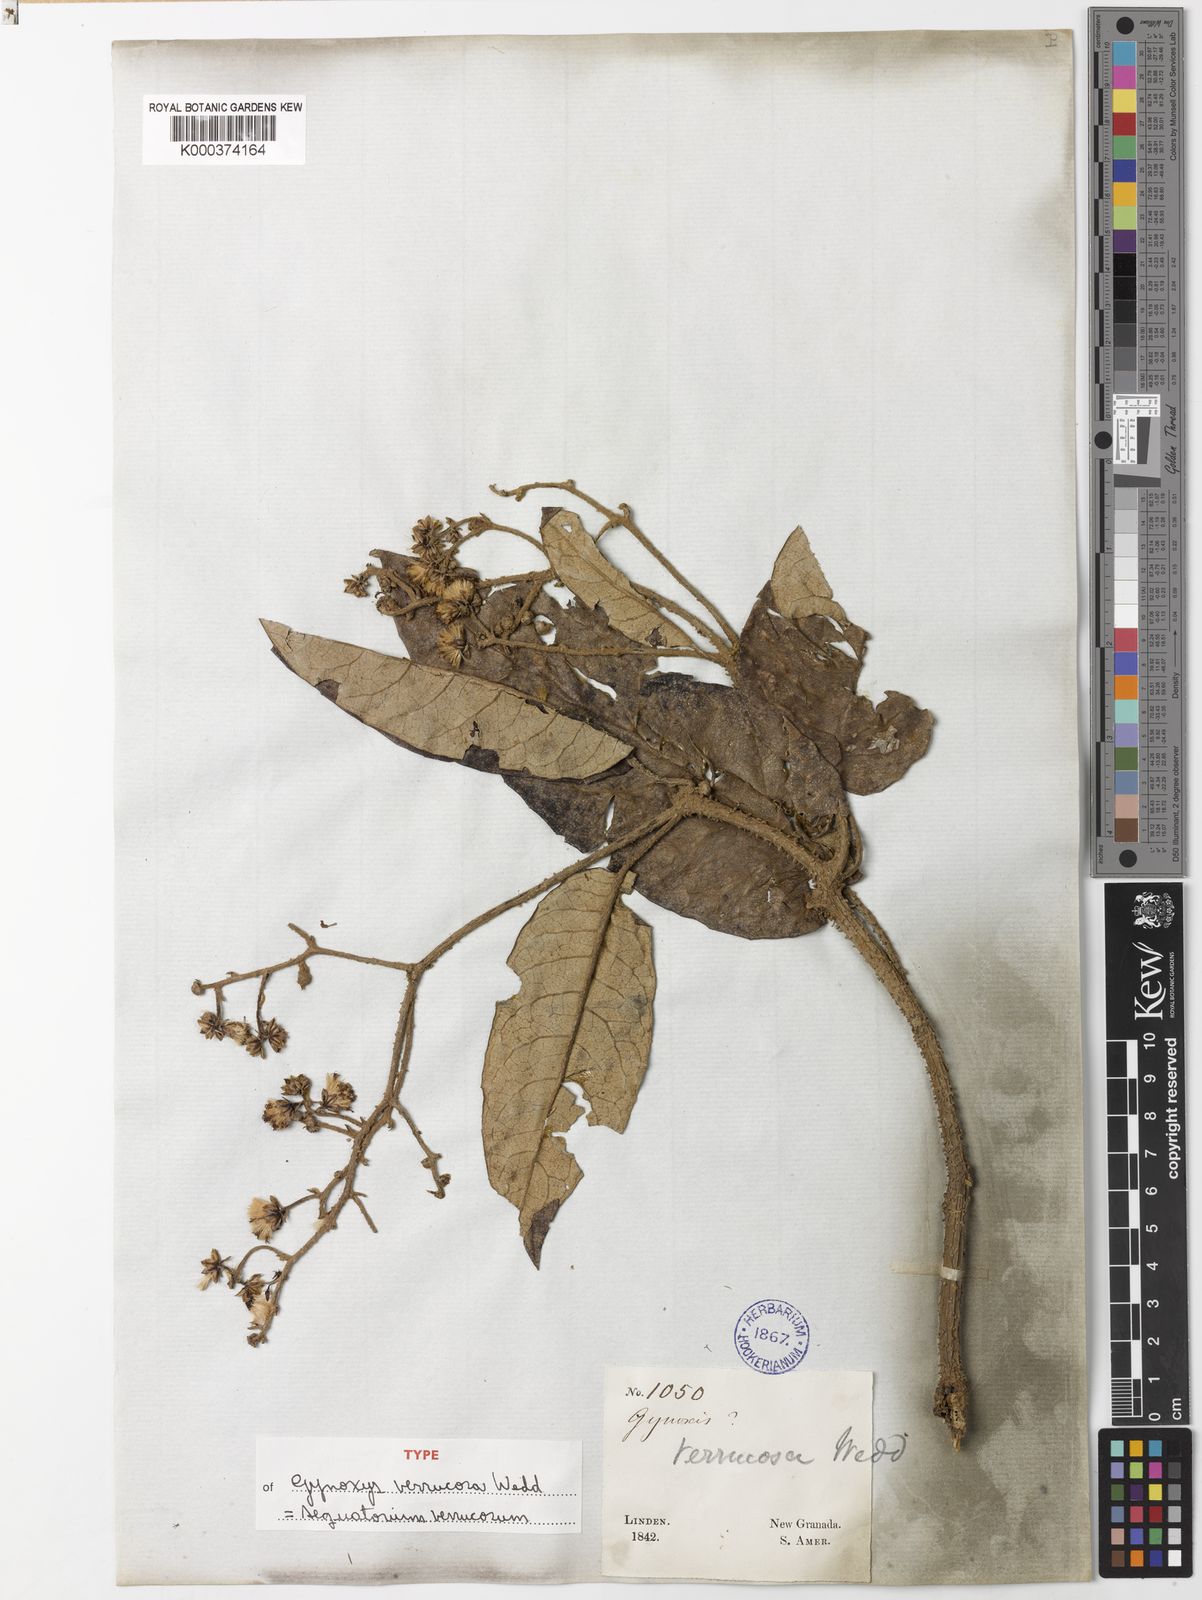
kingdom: Plantae
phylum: Tracheophyta
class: Magnoliopsida
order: Asterales
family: Asteraceae
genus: Aequatorium
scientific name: Aequatorium verrucosum
